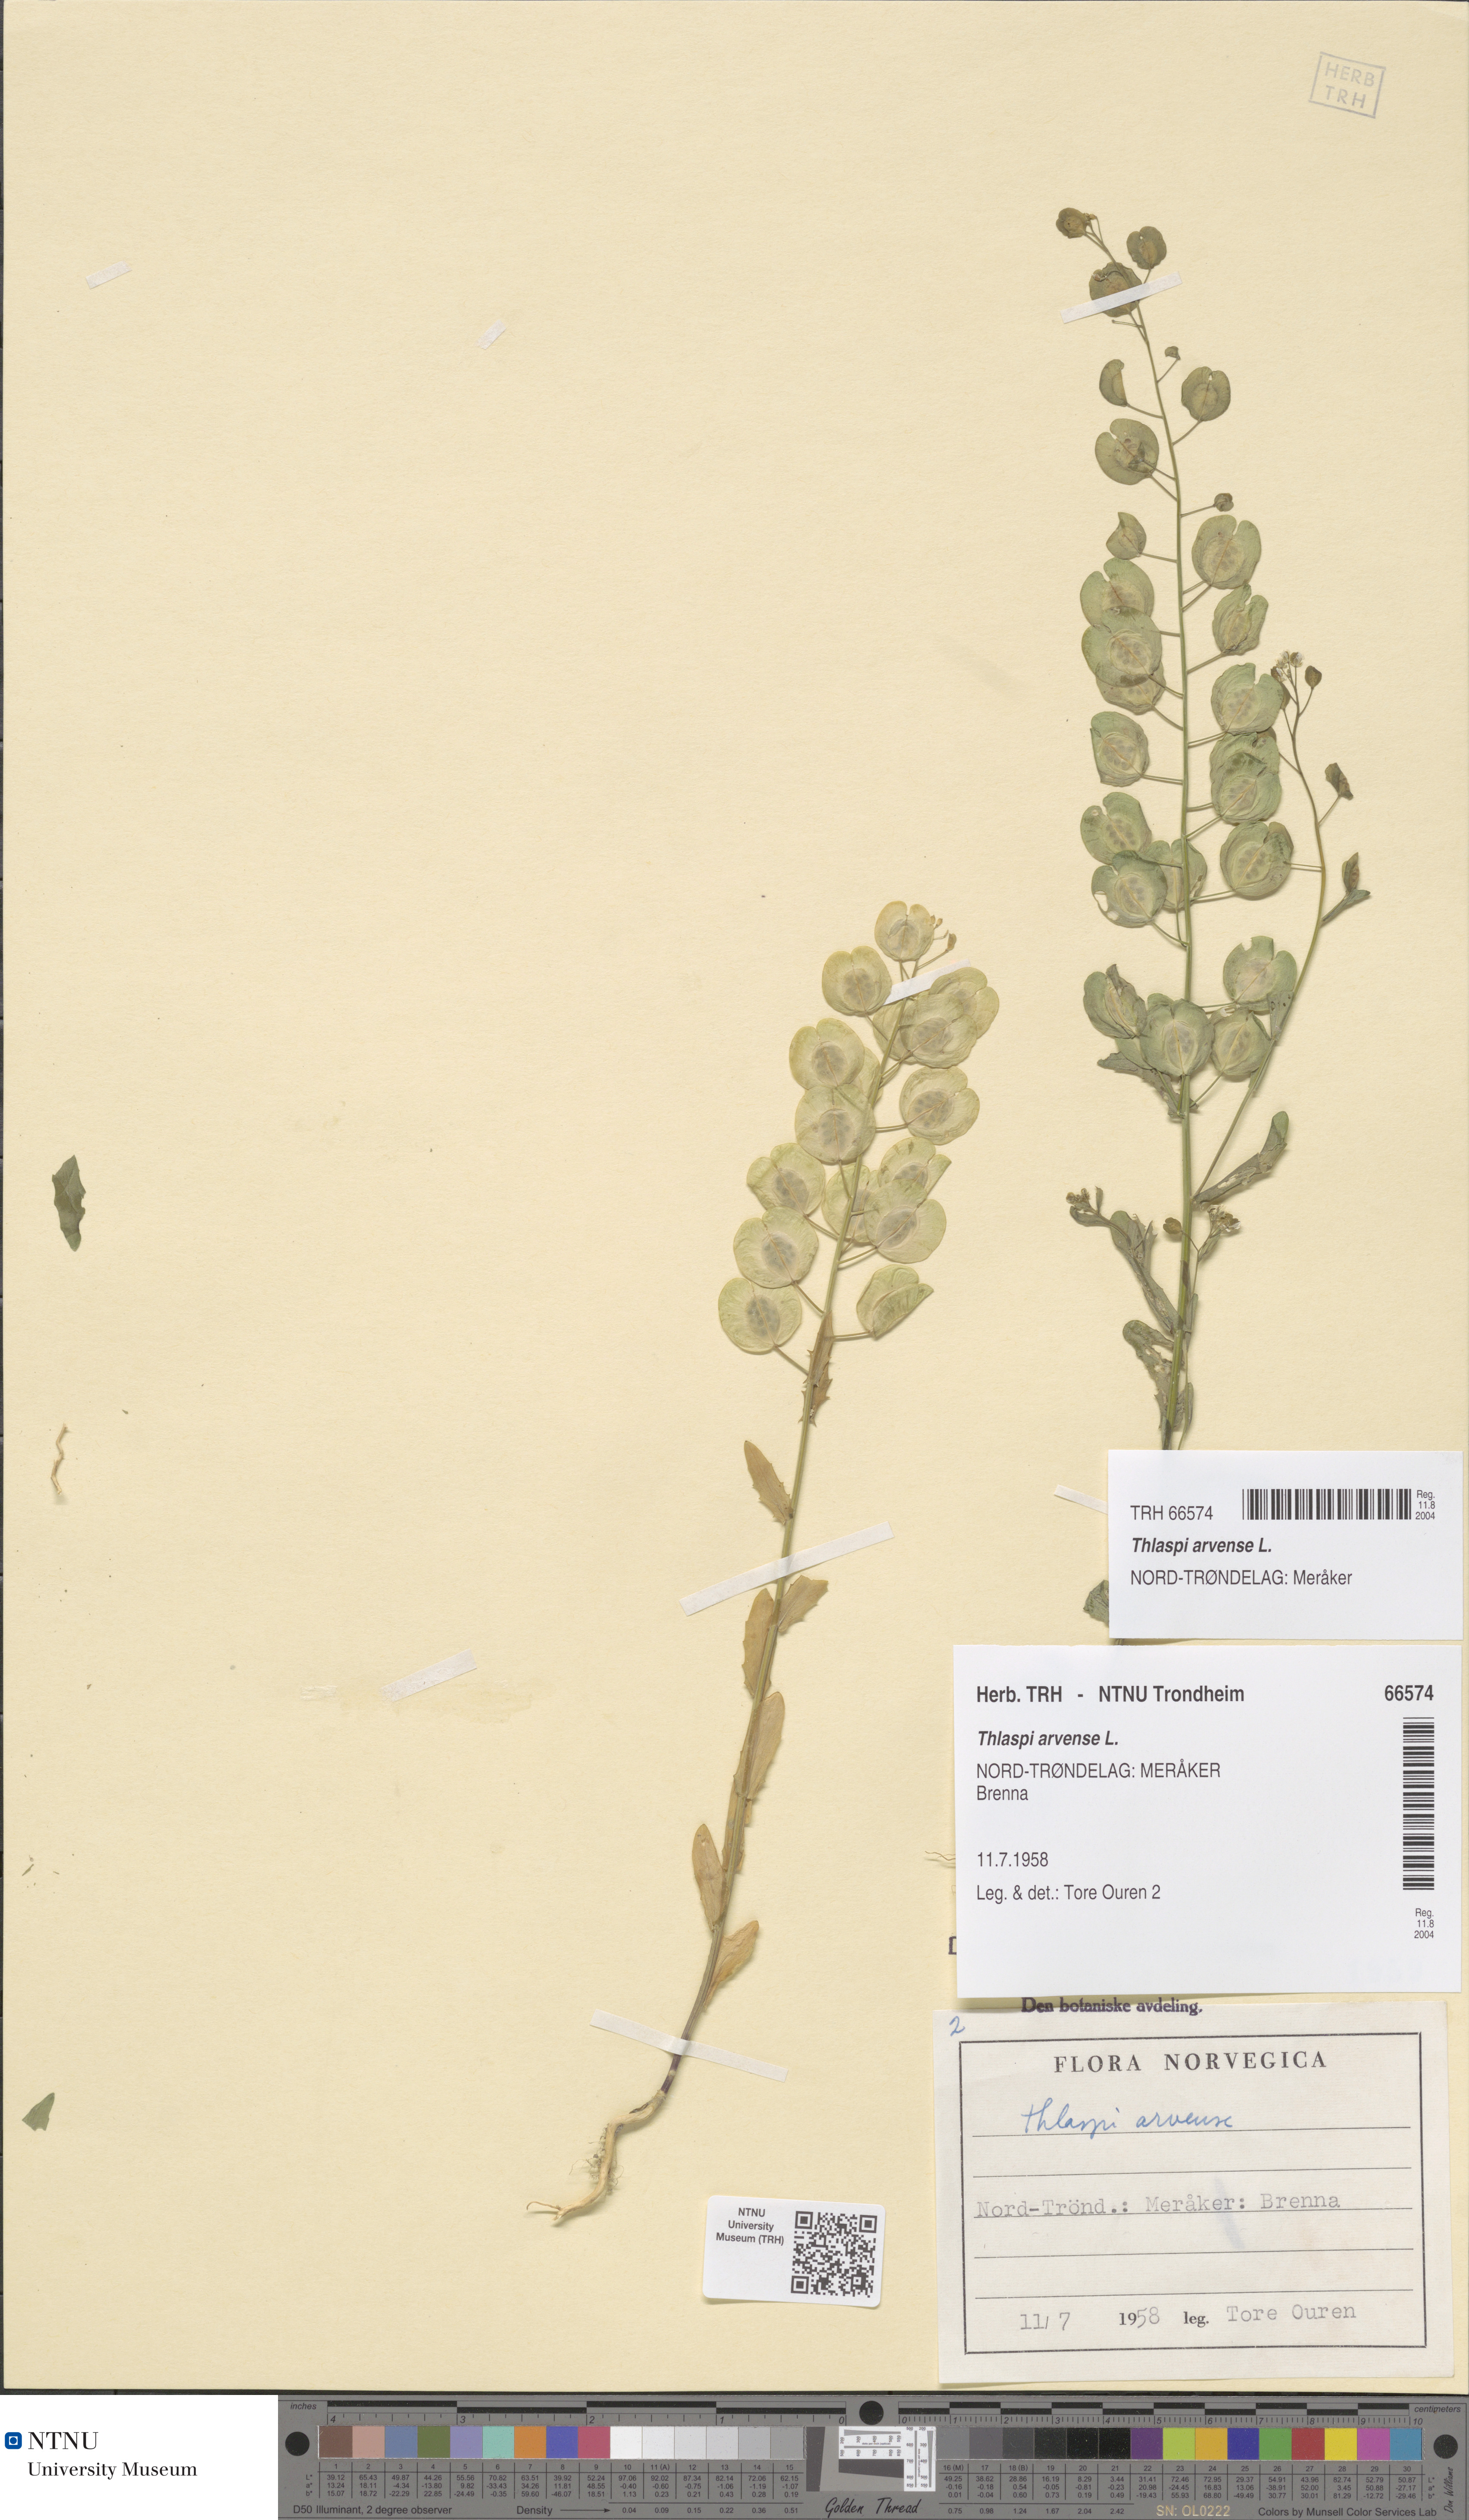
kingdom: Plantae
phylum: Tracheophyta
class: Magnoliopsida
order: Brassicales
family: Brassicaceae
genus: Thlaspi
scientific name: Thlaspi arvense
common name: Field pennycress
